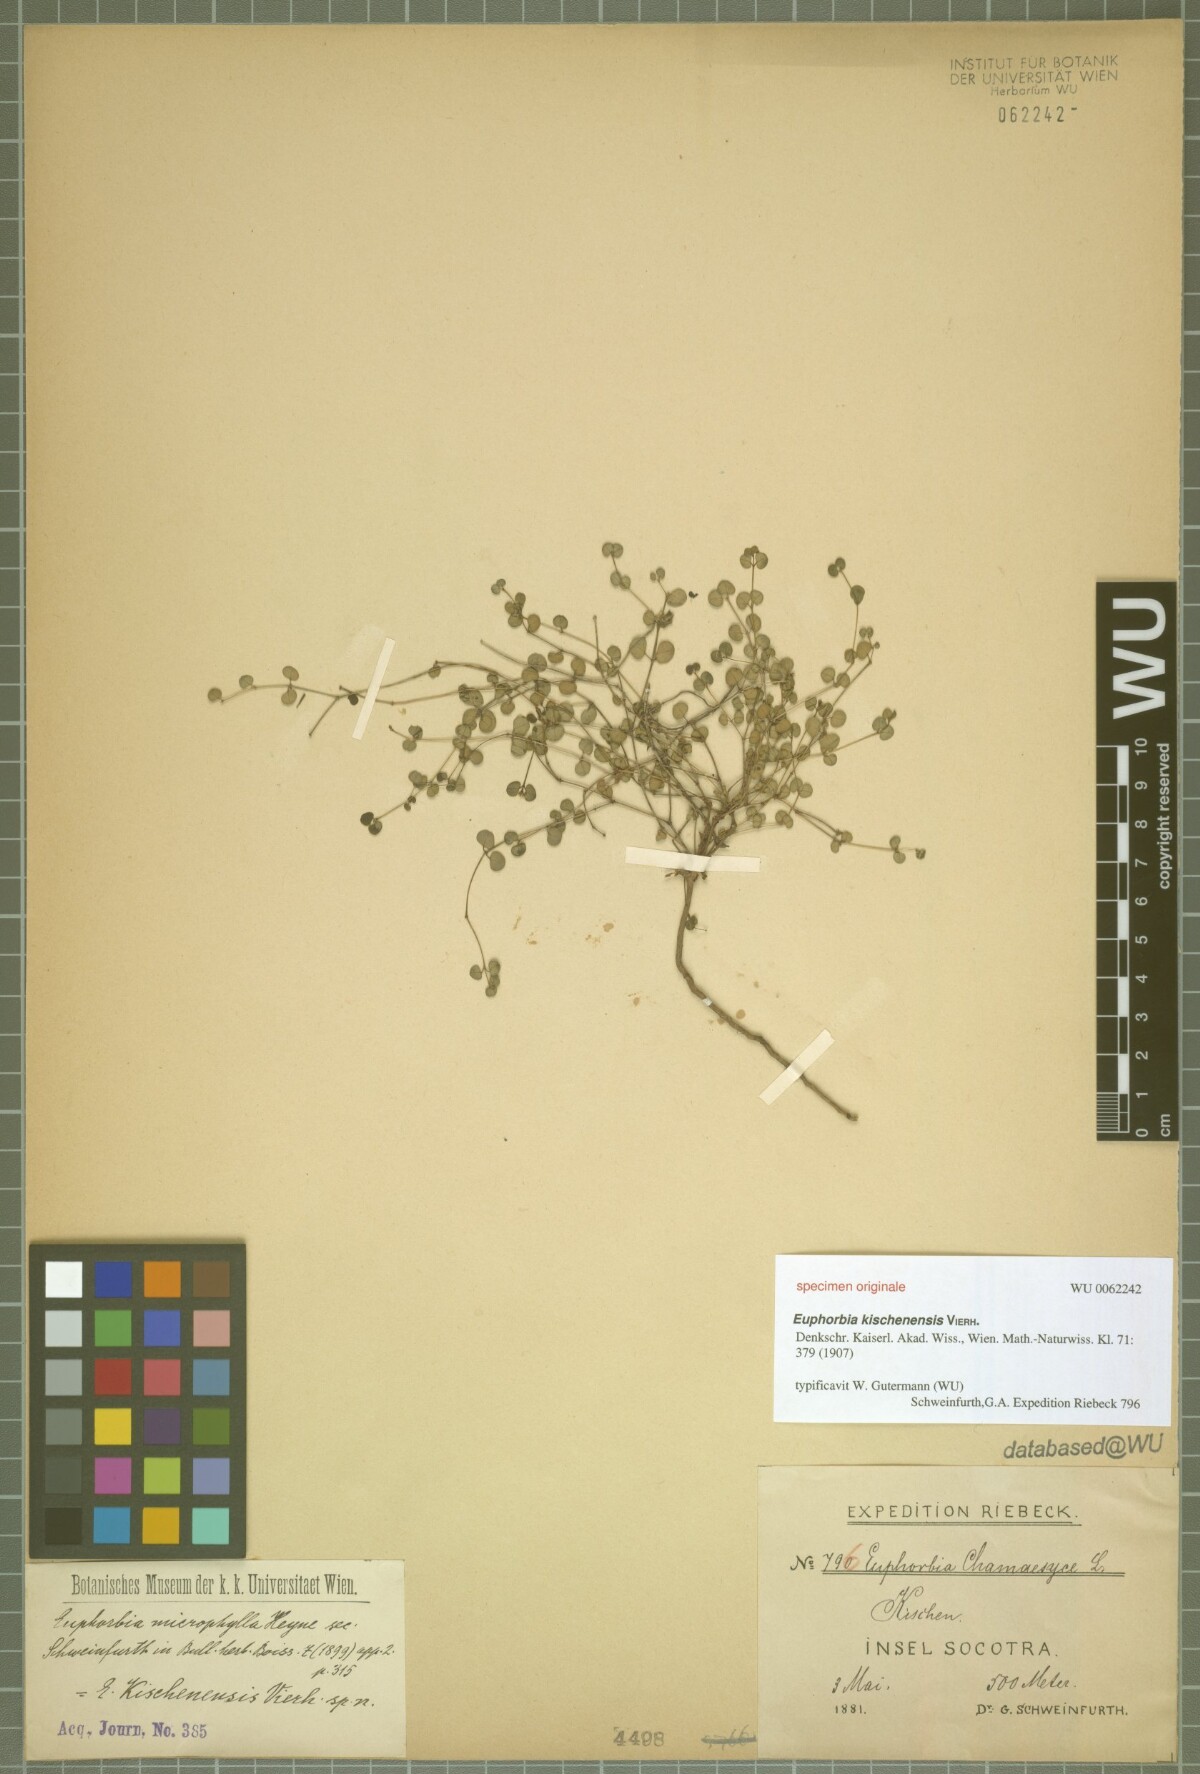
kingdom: Plantae
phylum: Tracheophyta
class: Magnoliopsida
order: Malpighiales
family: Euphorbiaceae
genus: Euphorbia
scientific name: Euphorbia kischenensis
